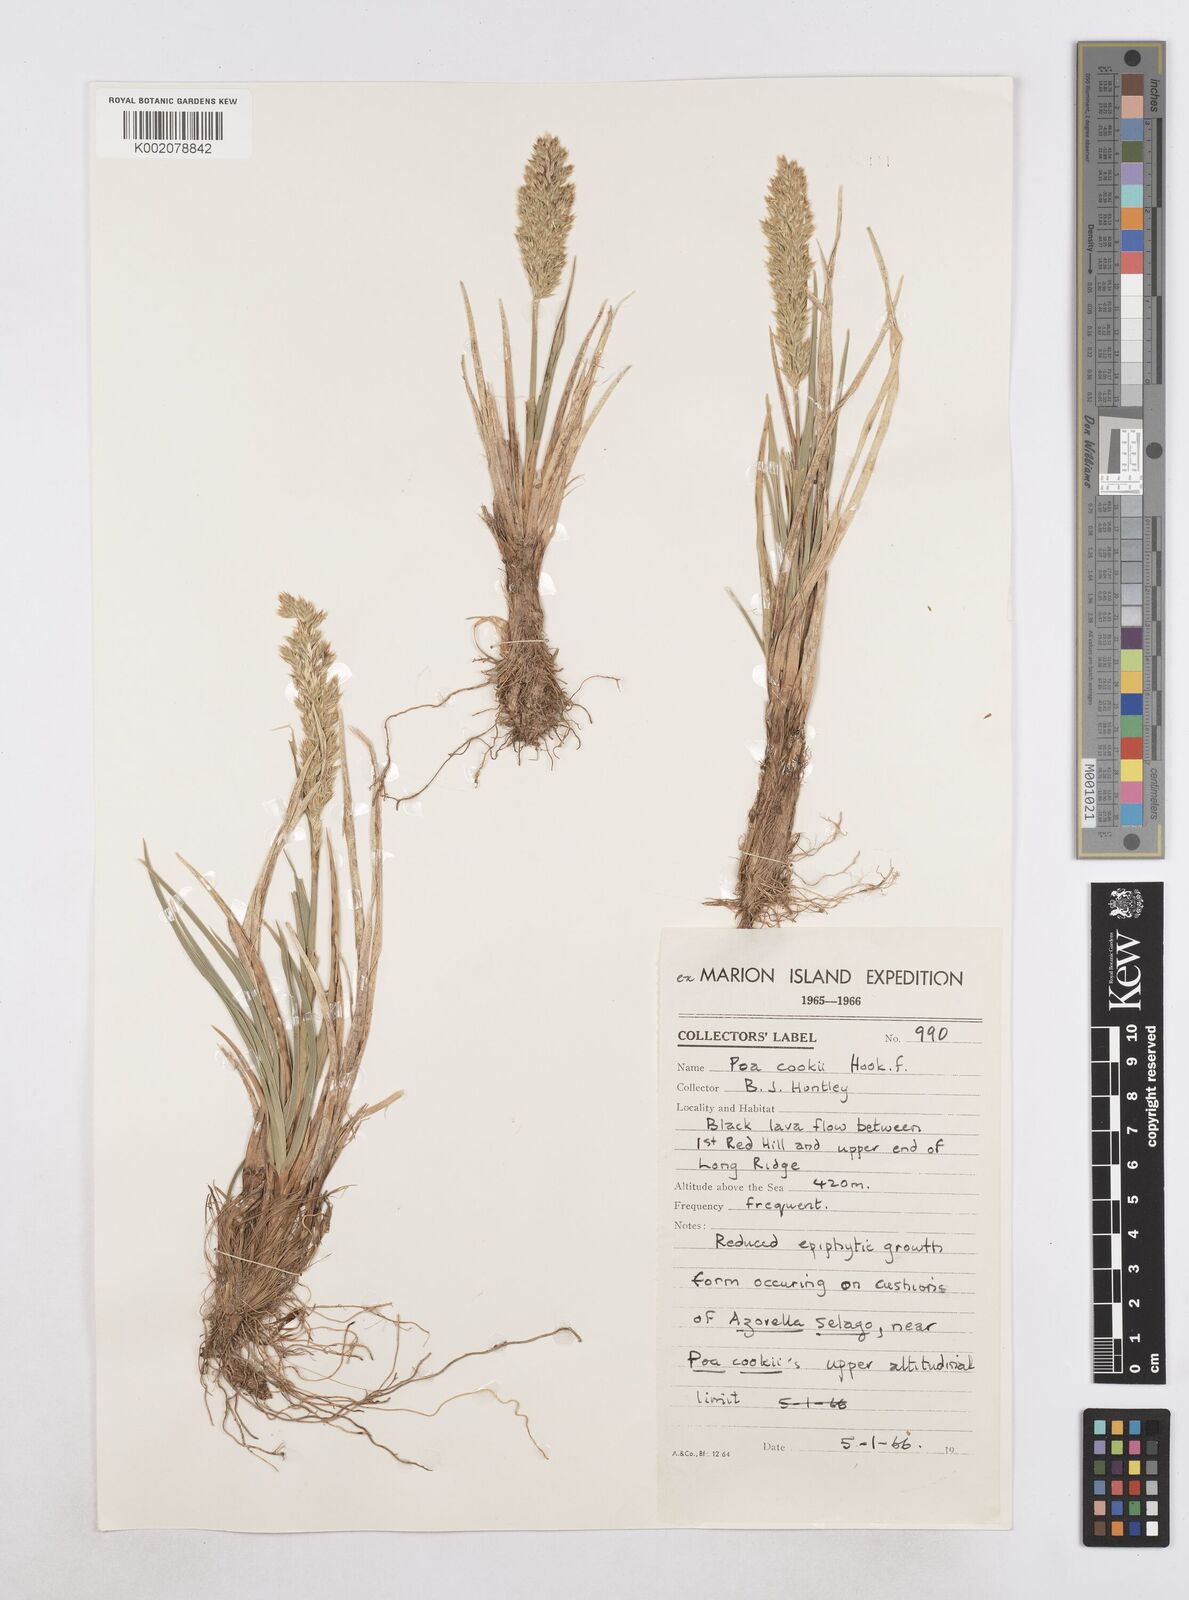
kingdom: Plantae
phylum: Tracheophyta
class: Liliopsida
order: Poales
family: Poaceae
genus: Poa
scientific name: Poa cookii
